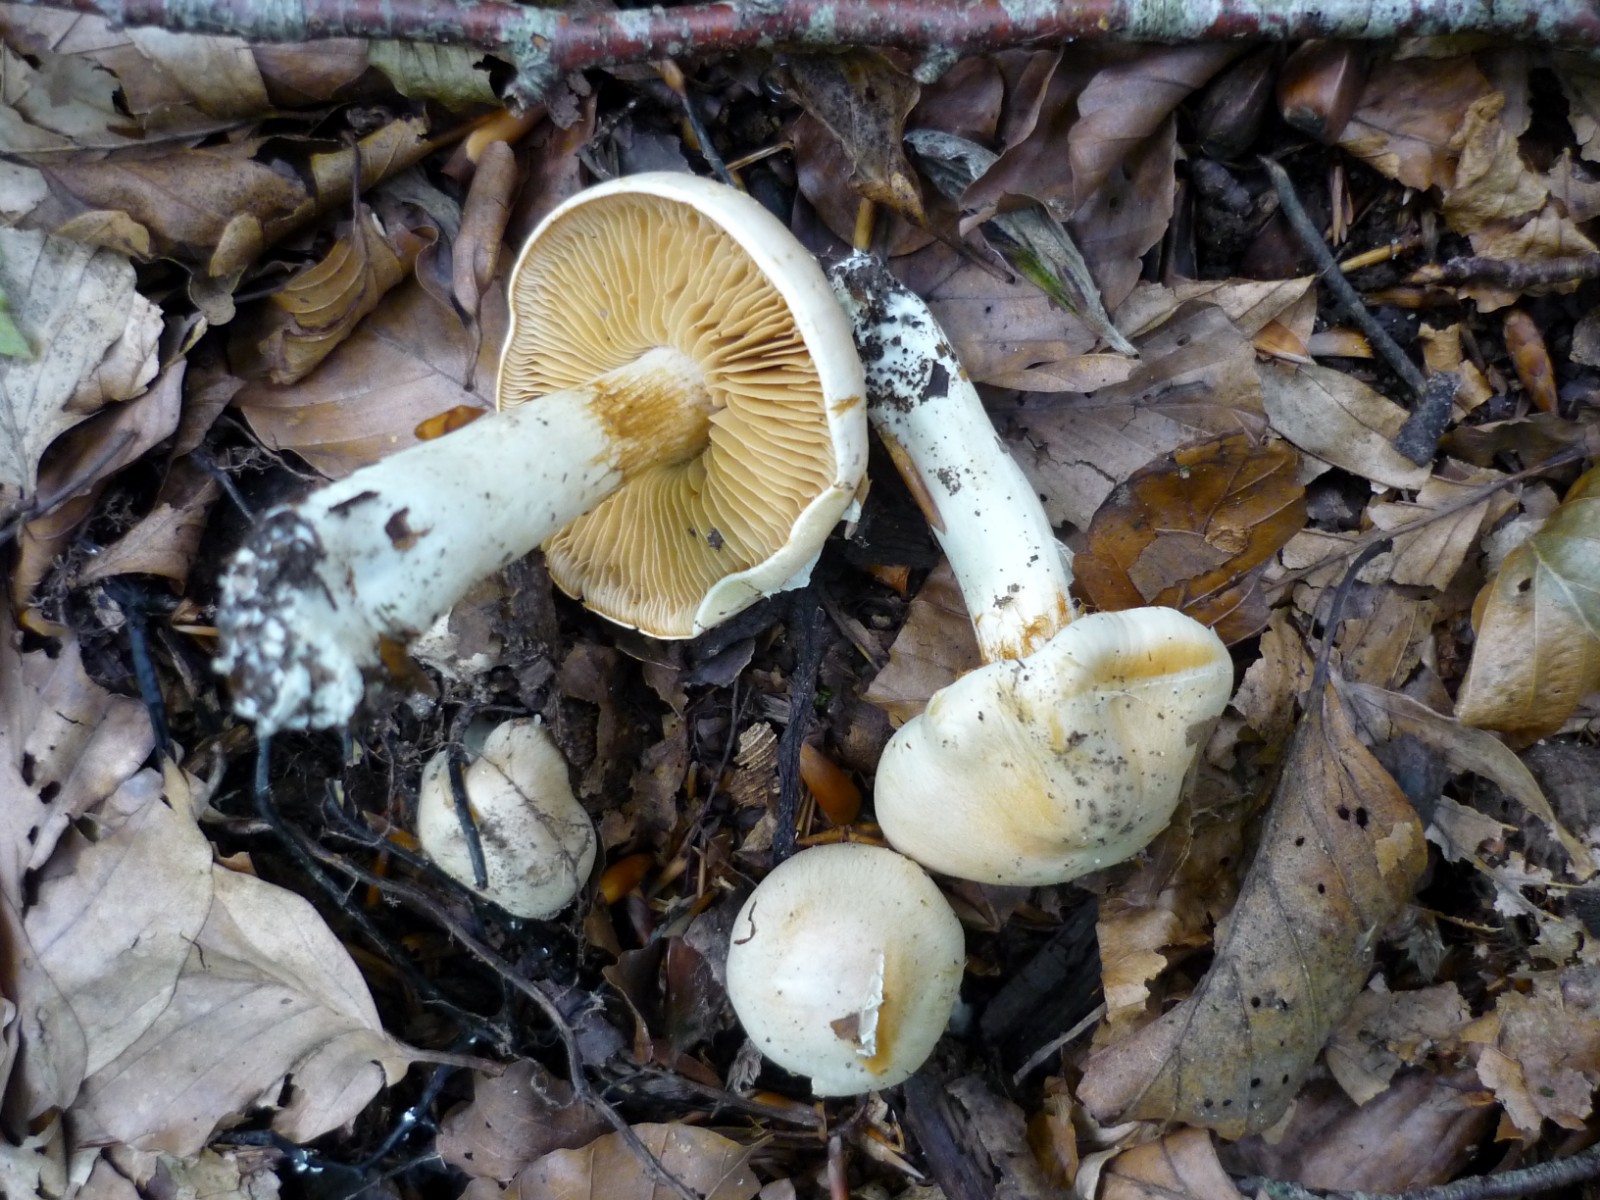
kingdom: Fungi
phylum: Basidiomycota
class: Agaricomycetes
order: Agaricales
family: Cortinariaceae
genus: Thaxterogaster
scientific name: Thaxterogaster barbatus
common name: elfenbens-slørhat
